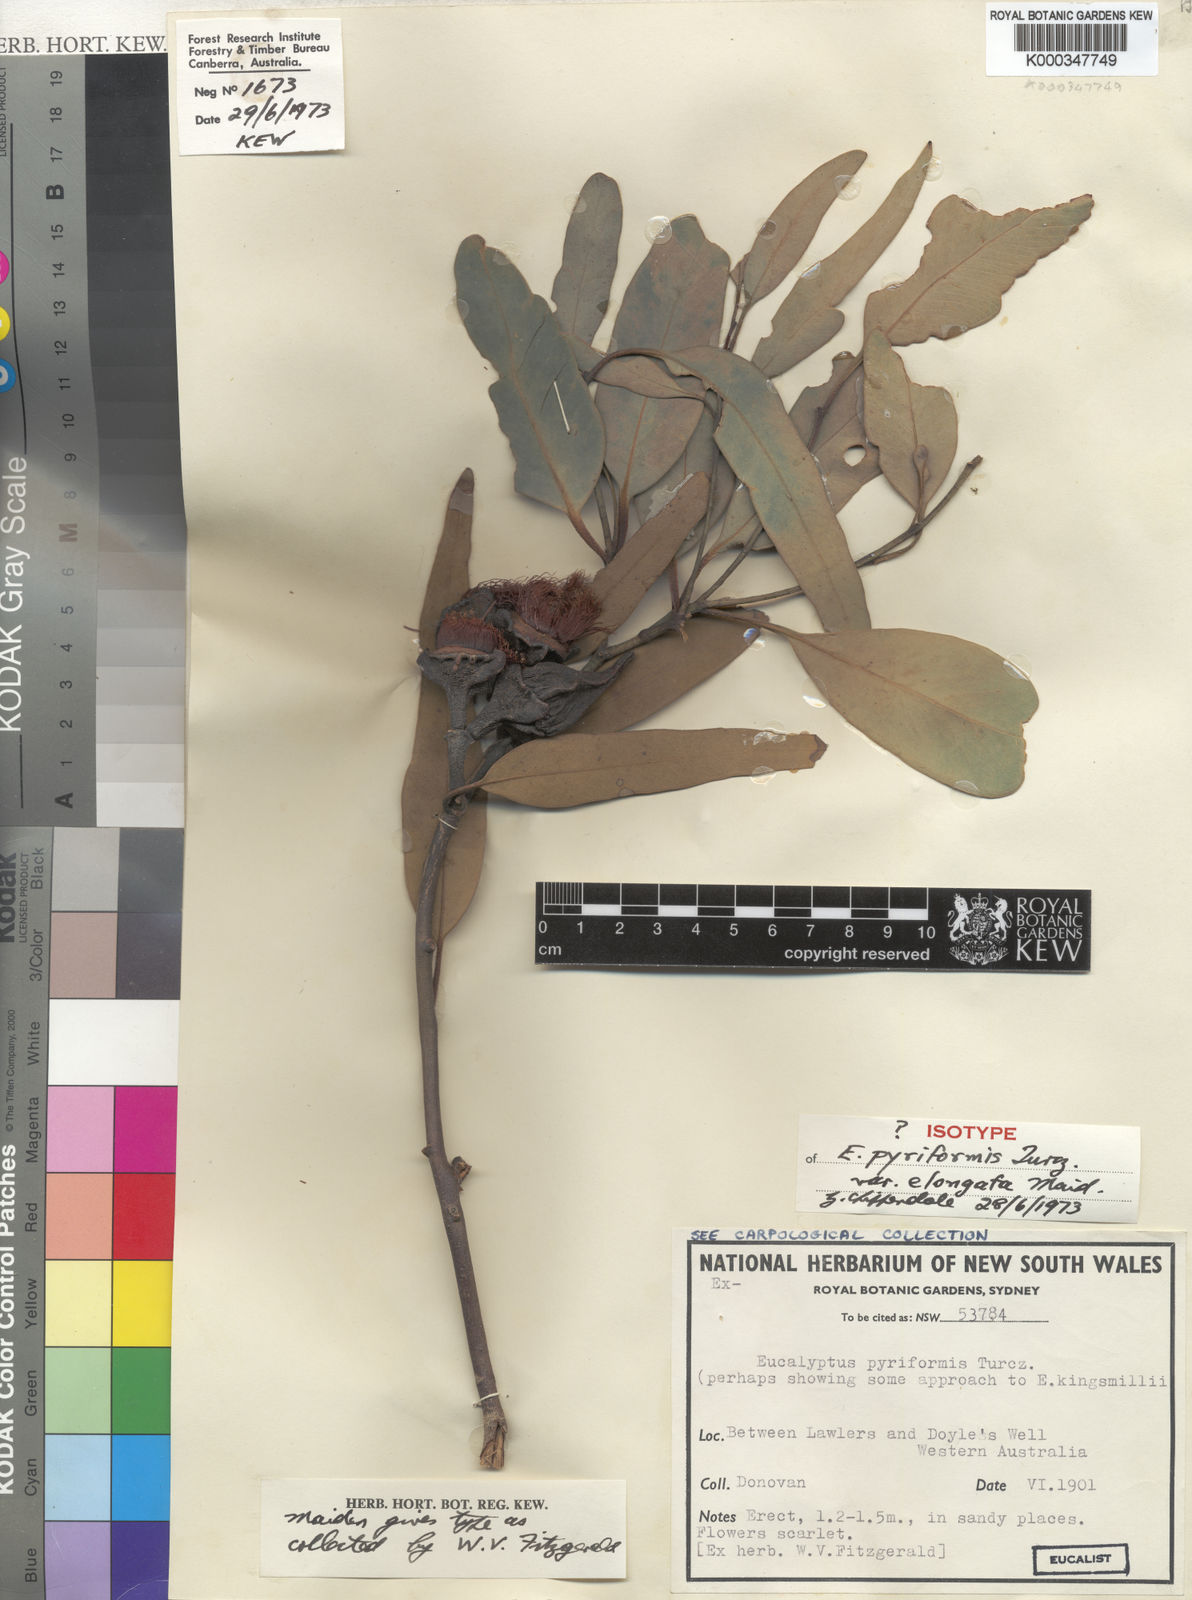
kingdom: Plantae
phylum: Tracheophyta
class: Magnoliopsida
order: Myrtales
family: Myrtaceae
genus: Eucalyptus
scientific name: Eucalyptus pyriformis
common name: Dowerin rose
